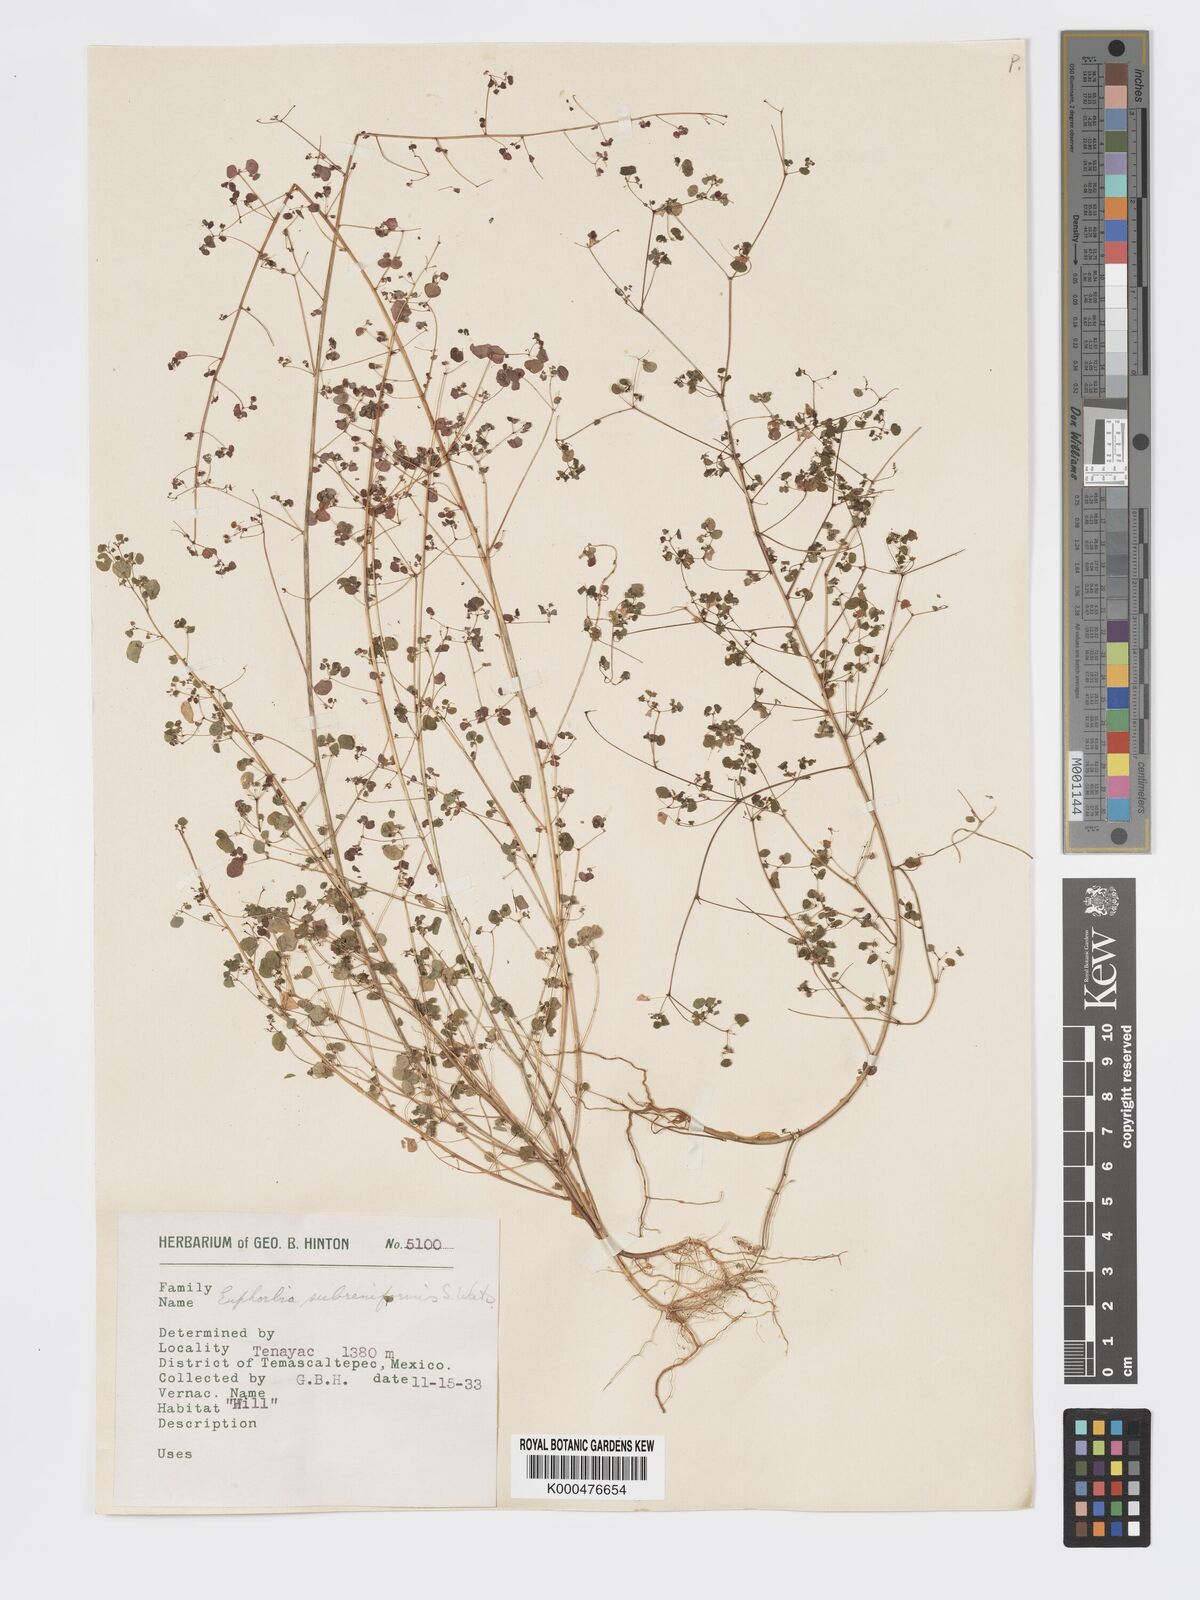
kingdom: Plantae
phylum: Tracheophyta
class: Magnoliopsida
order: Malpighiales
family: Euphorbiaceae
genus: Euphorbia
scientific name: Euphorbia fimbrilligera
